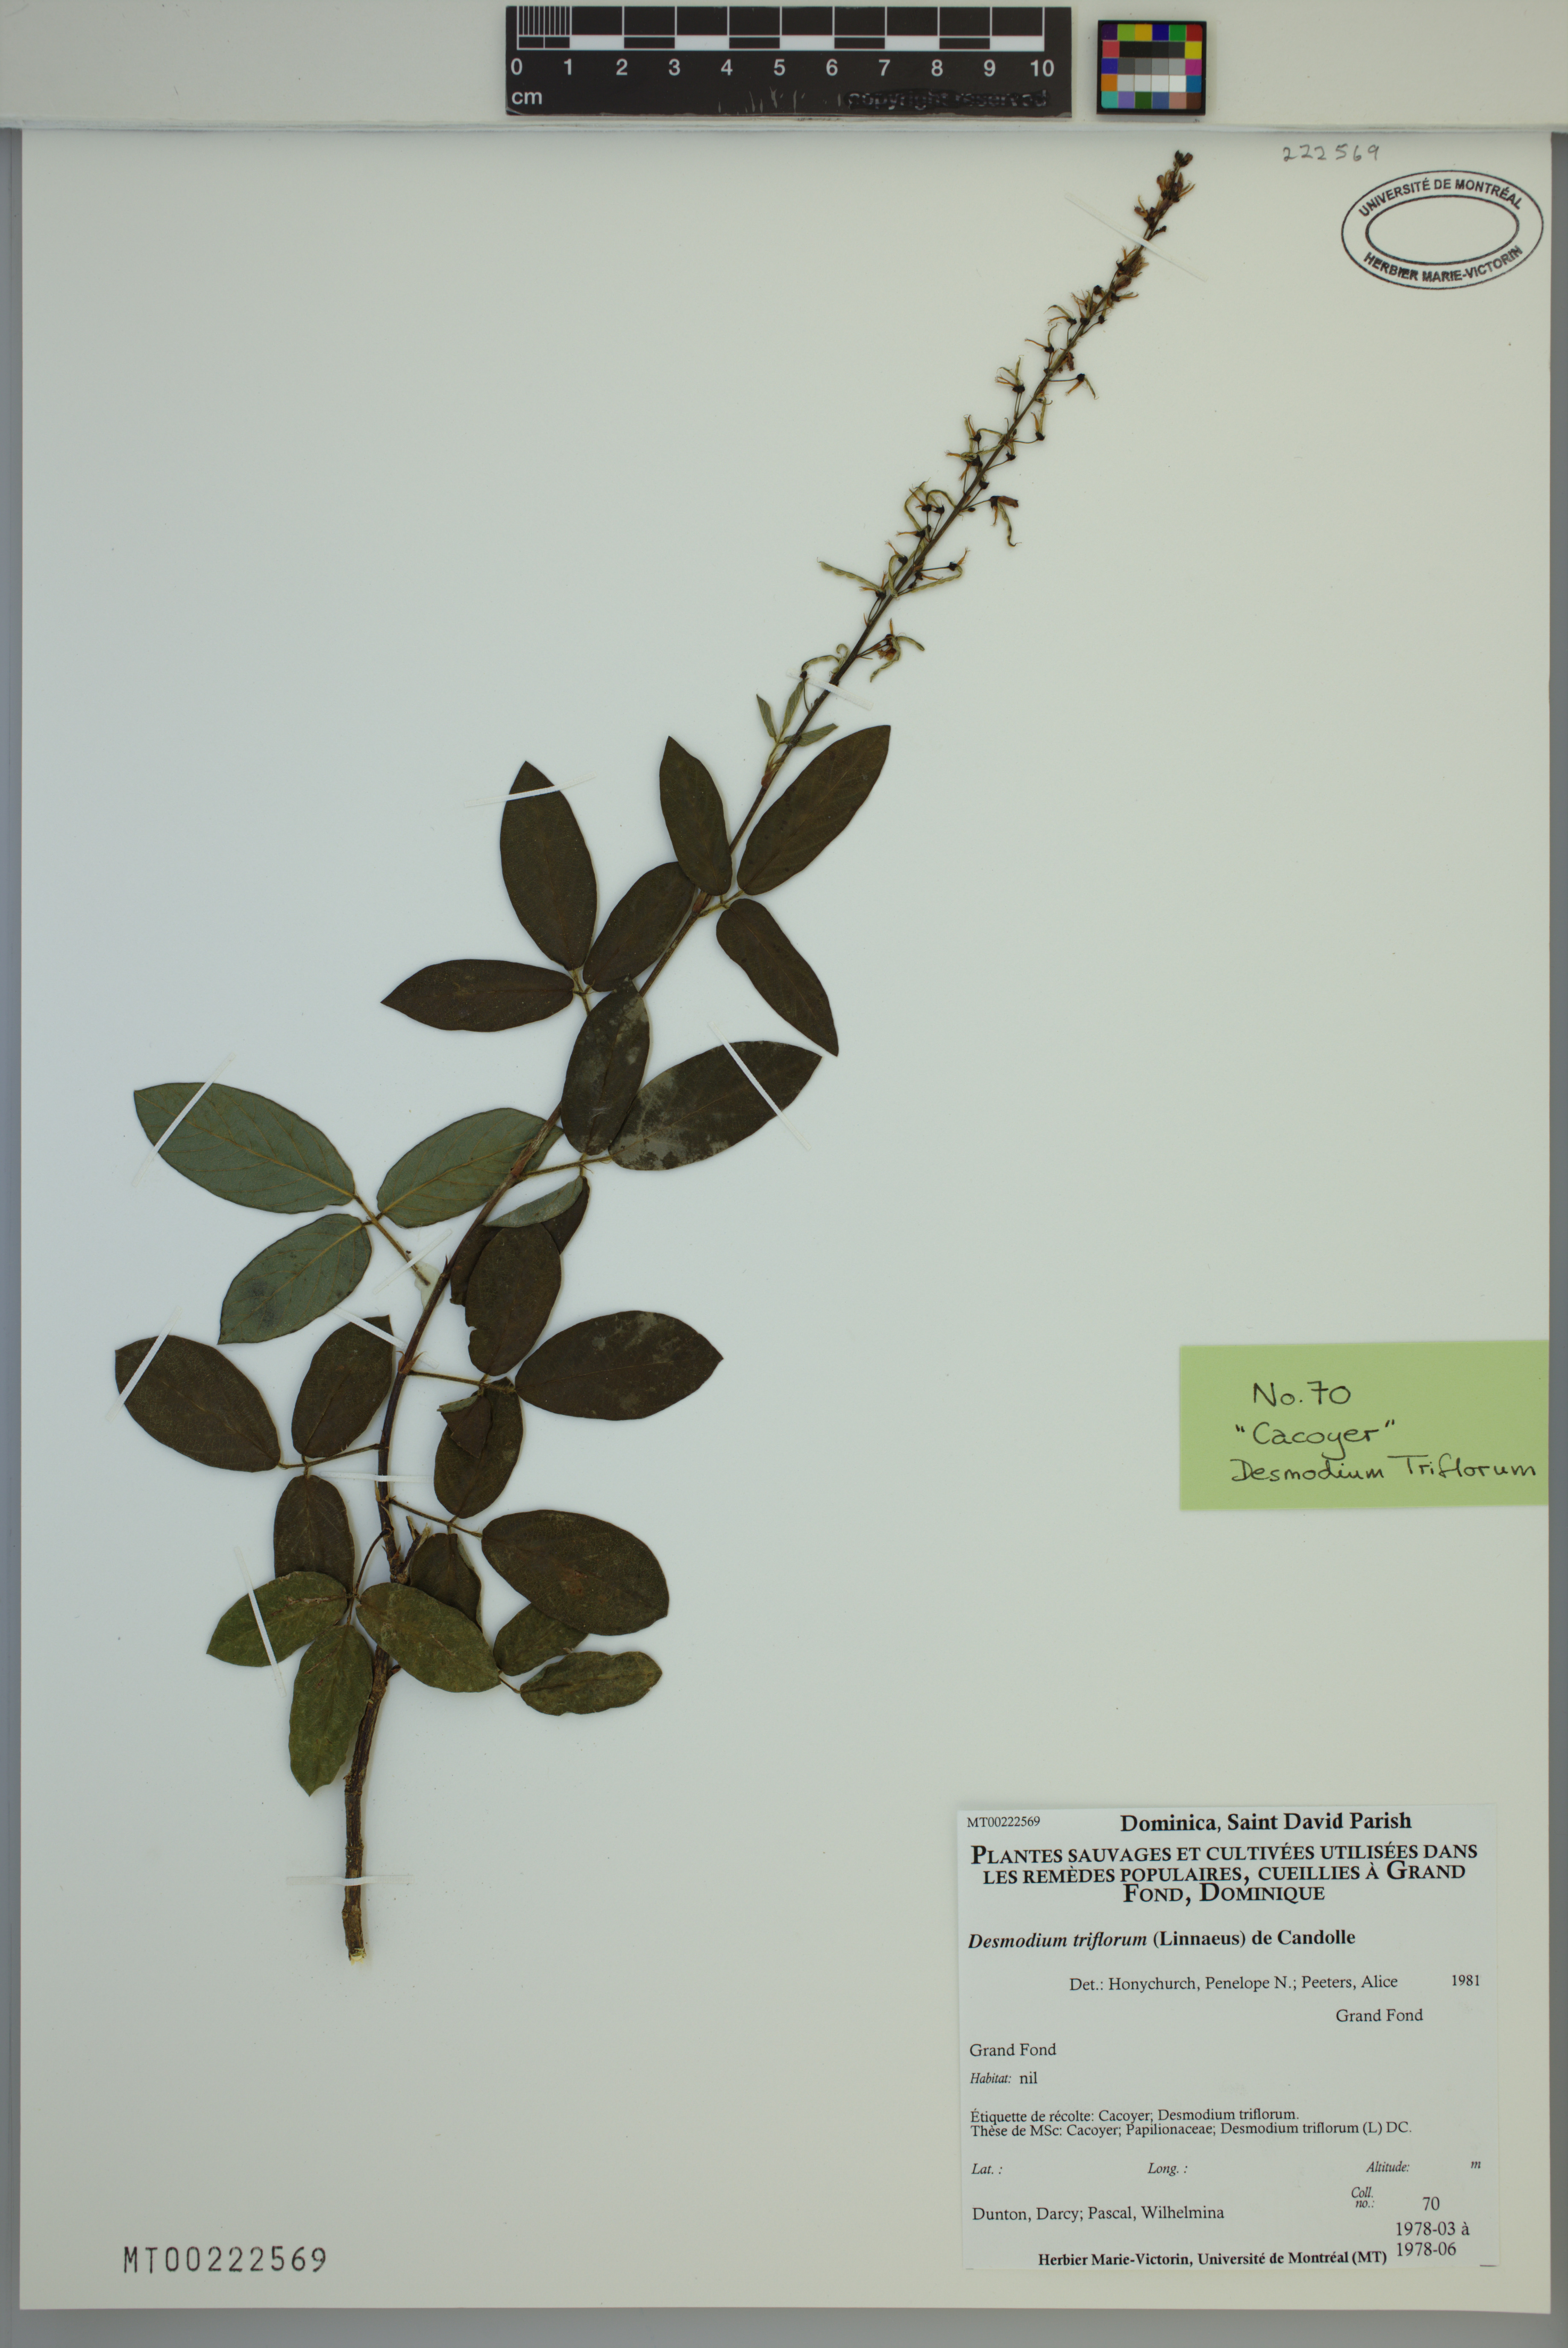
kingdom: Plantae
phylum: Tracheophyta
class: Magnoliopsida
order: Fabales
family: Fabaceae
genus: Grona
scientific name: Grona triflora
